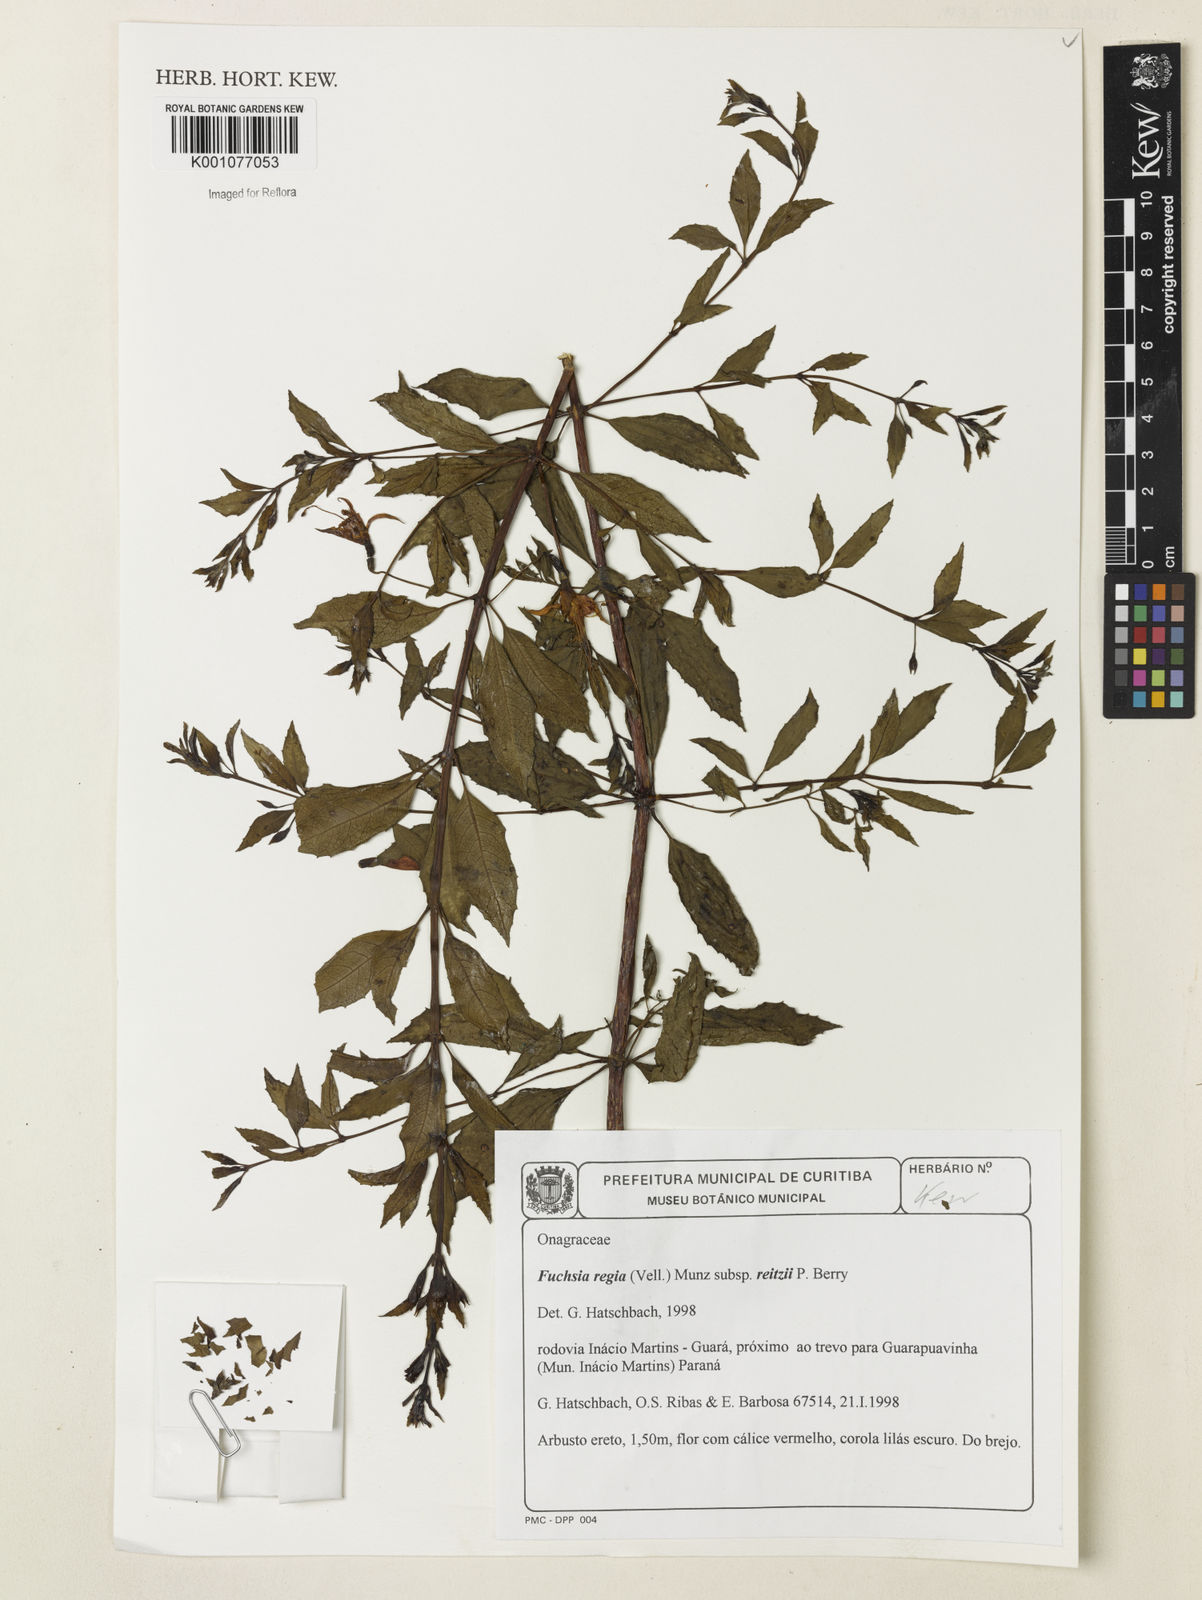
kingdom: Plantae
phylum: Tracheophyta
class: Magnoliopsida
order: Myrtales
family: Onagraceae
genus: Fuchsia
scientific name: Fuchsia regia
